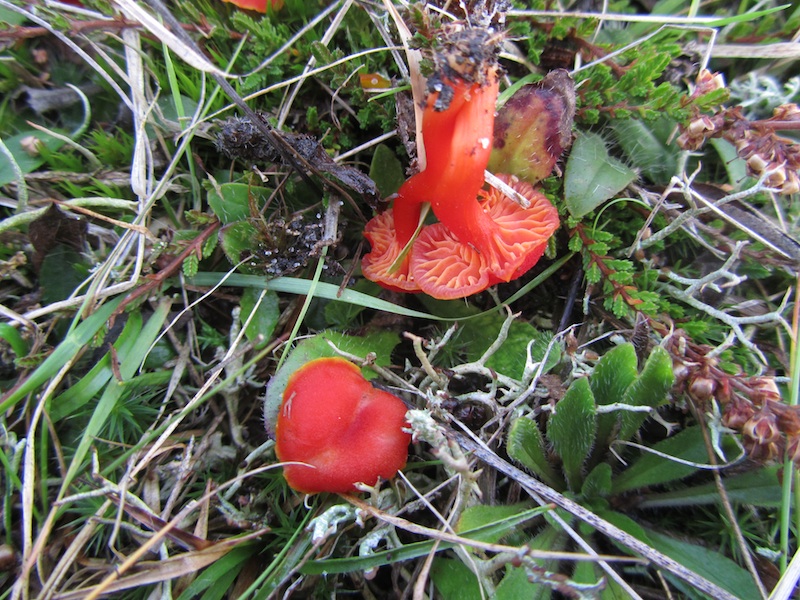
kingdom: Fungi
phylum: Basidiomycota
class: Agaricomycetes
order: Agaricales
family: Hygrophoraceae
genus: Hygrocybe
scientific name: Hygrocybe
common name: vokshat
